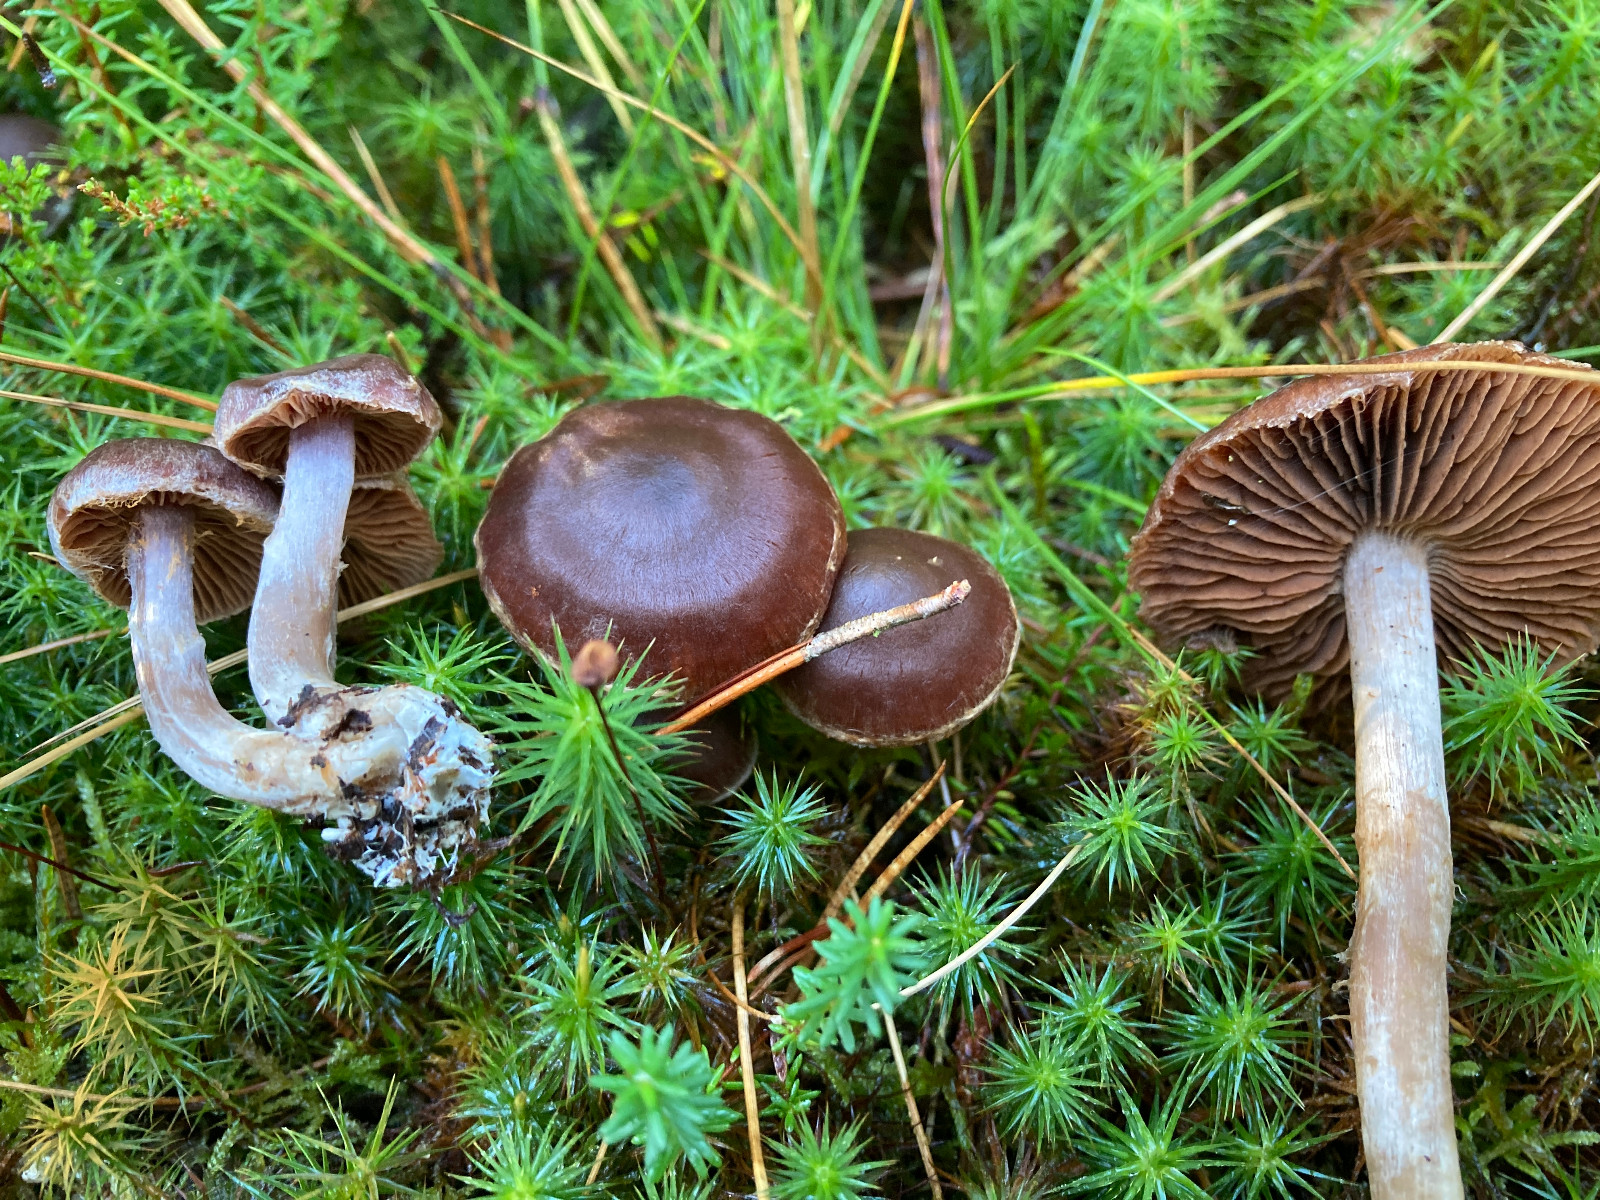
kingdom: Fungi
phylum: Basidiomycota
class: Agaricomycetes
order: Agaricales
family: Cortinariaceae
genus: Cortinarius
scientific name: Cortinarius
